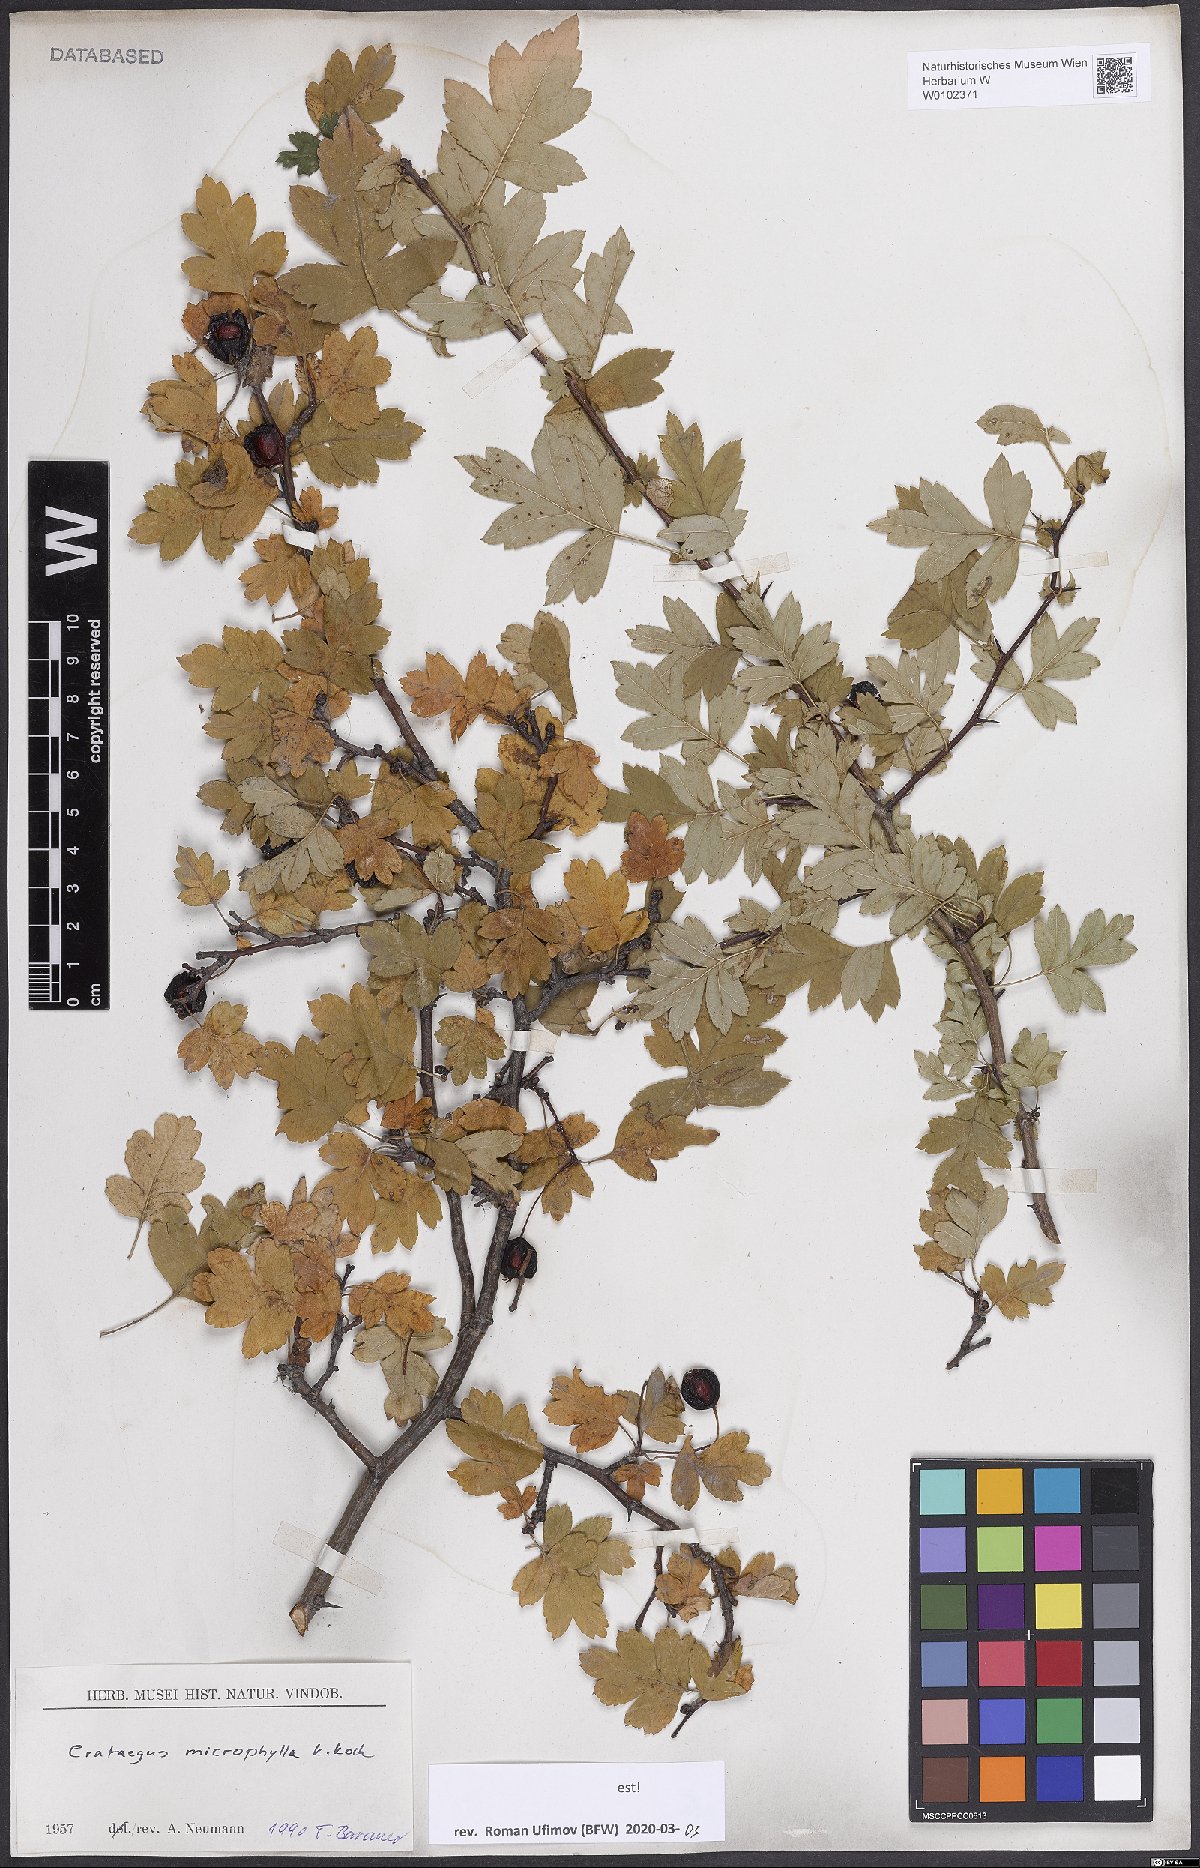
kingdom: Plantae
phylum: Tracheophyta
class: Magnoliopsida
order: Rosales
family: Rosaceae
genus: Crataegus
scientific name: Crataegus microphylla
